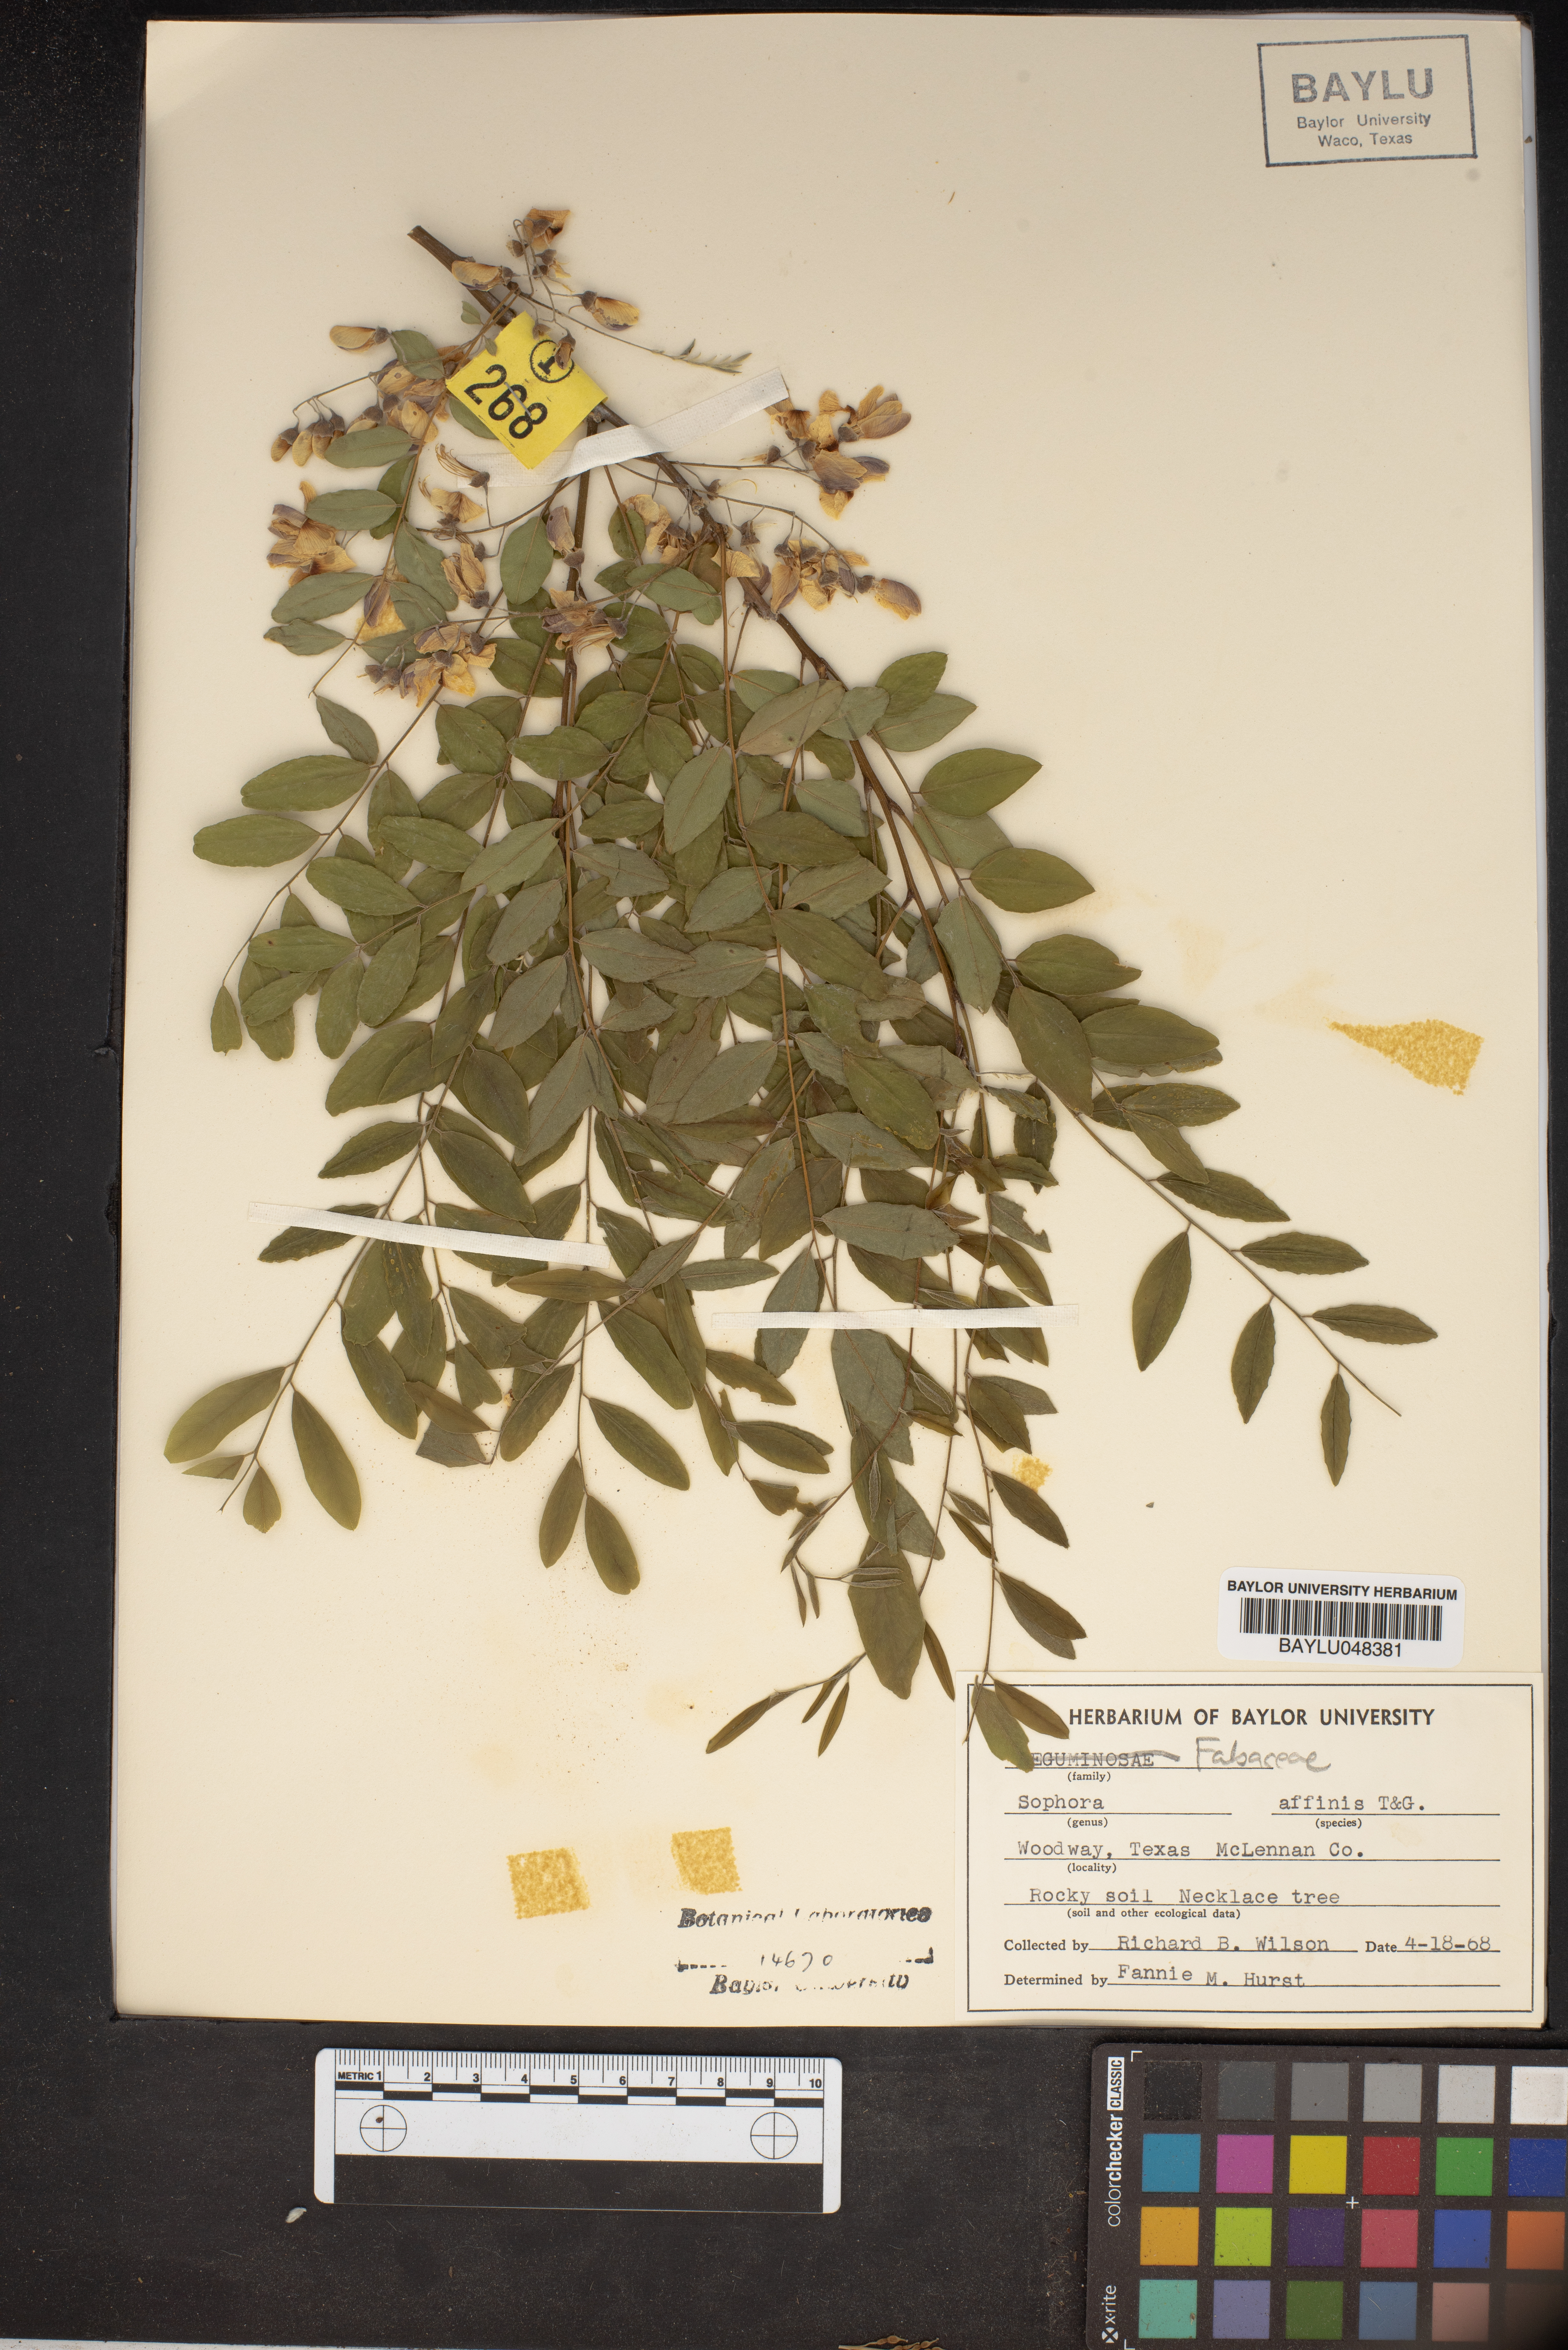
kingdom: Plantae
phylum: Tracheophyta
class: Magnoliopsida
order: Fabales
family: Fabaceae
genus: Styphnolobium
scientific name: Styphnolobium affine
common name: Texas sophora
